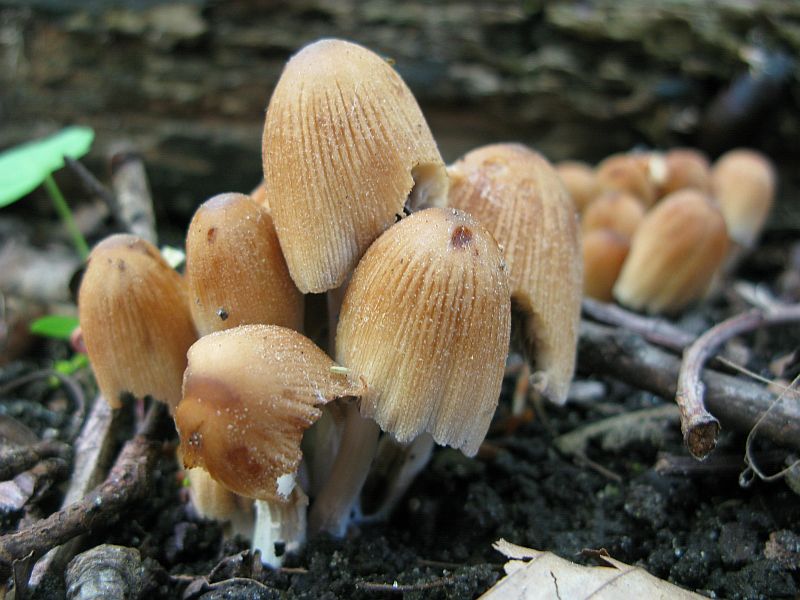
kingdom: Fungi
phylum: Basidiomycota
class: Agaricomycetes
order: Agaricales
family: Psathyrellaceae
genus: Coprinellus
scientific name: Coprinellus micaceus
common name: glimmer-blækhat
